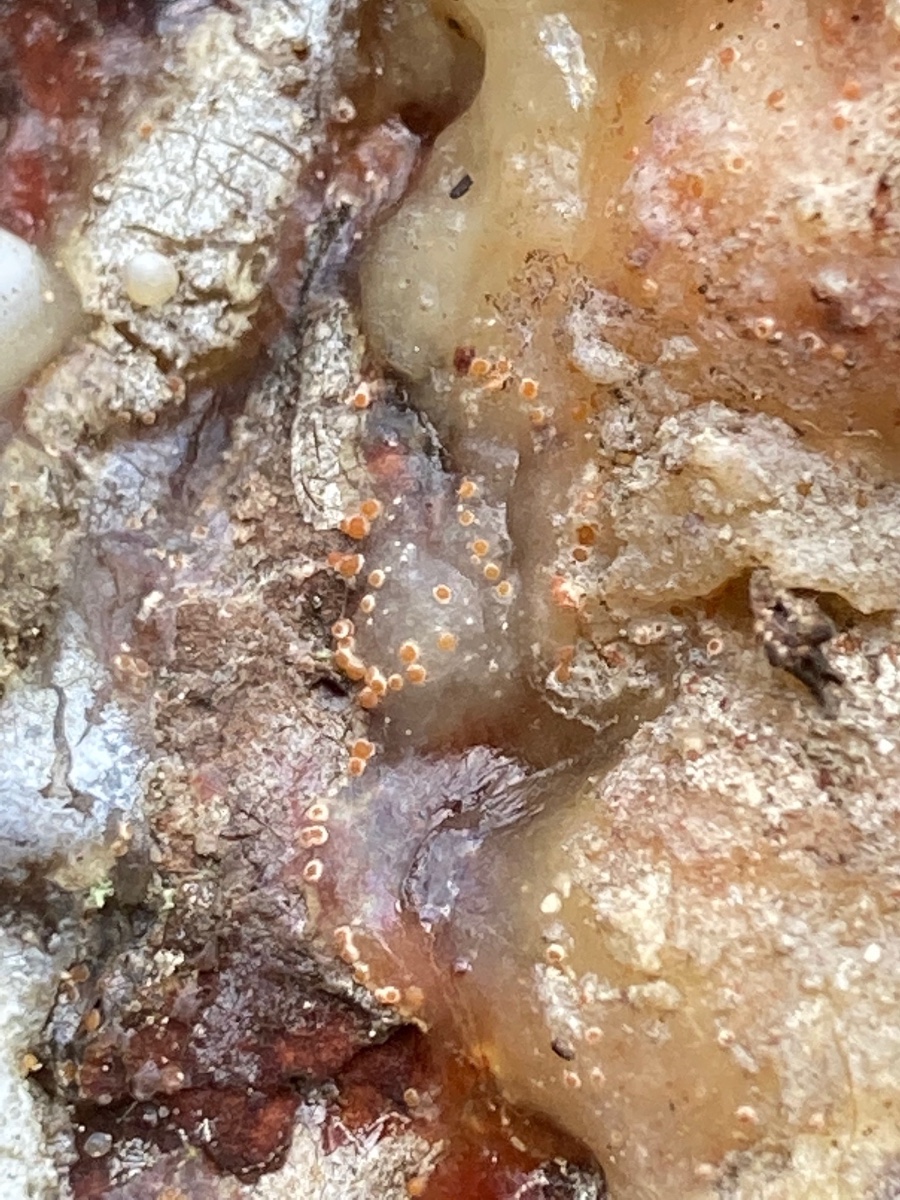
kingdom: Fungi
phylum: Ascomycota
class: Sareomycetes
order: Sareales
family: Sareaceae
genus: Sarea
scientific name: Sarea resinae
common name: orangegul harpiksskive
